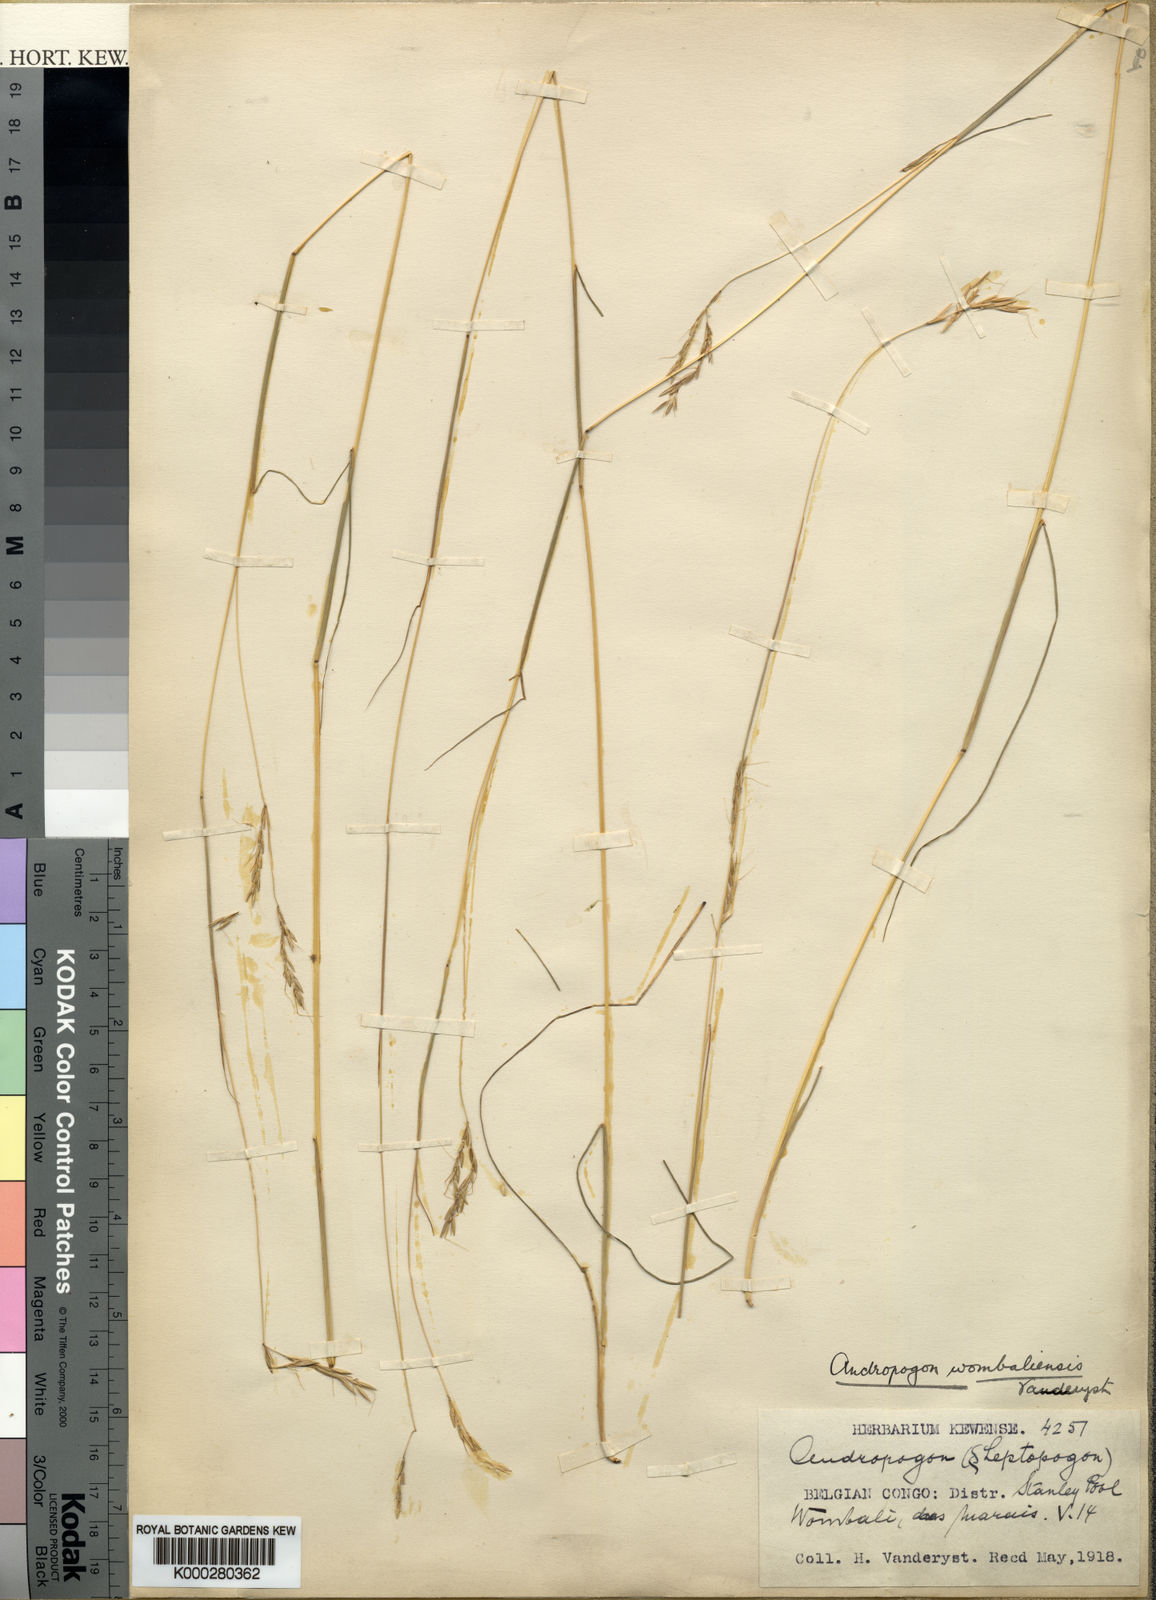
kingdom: Plantae
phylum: Tracheophyta
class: Liliopsida
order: Poales
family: Poaceae
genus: Hyparrhenia
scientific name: Hyparrhenia wombaliensis
